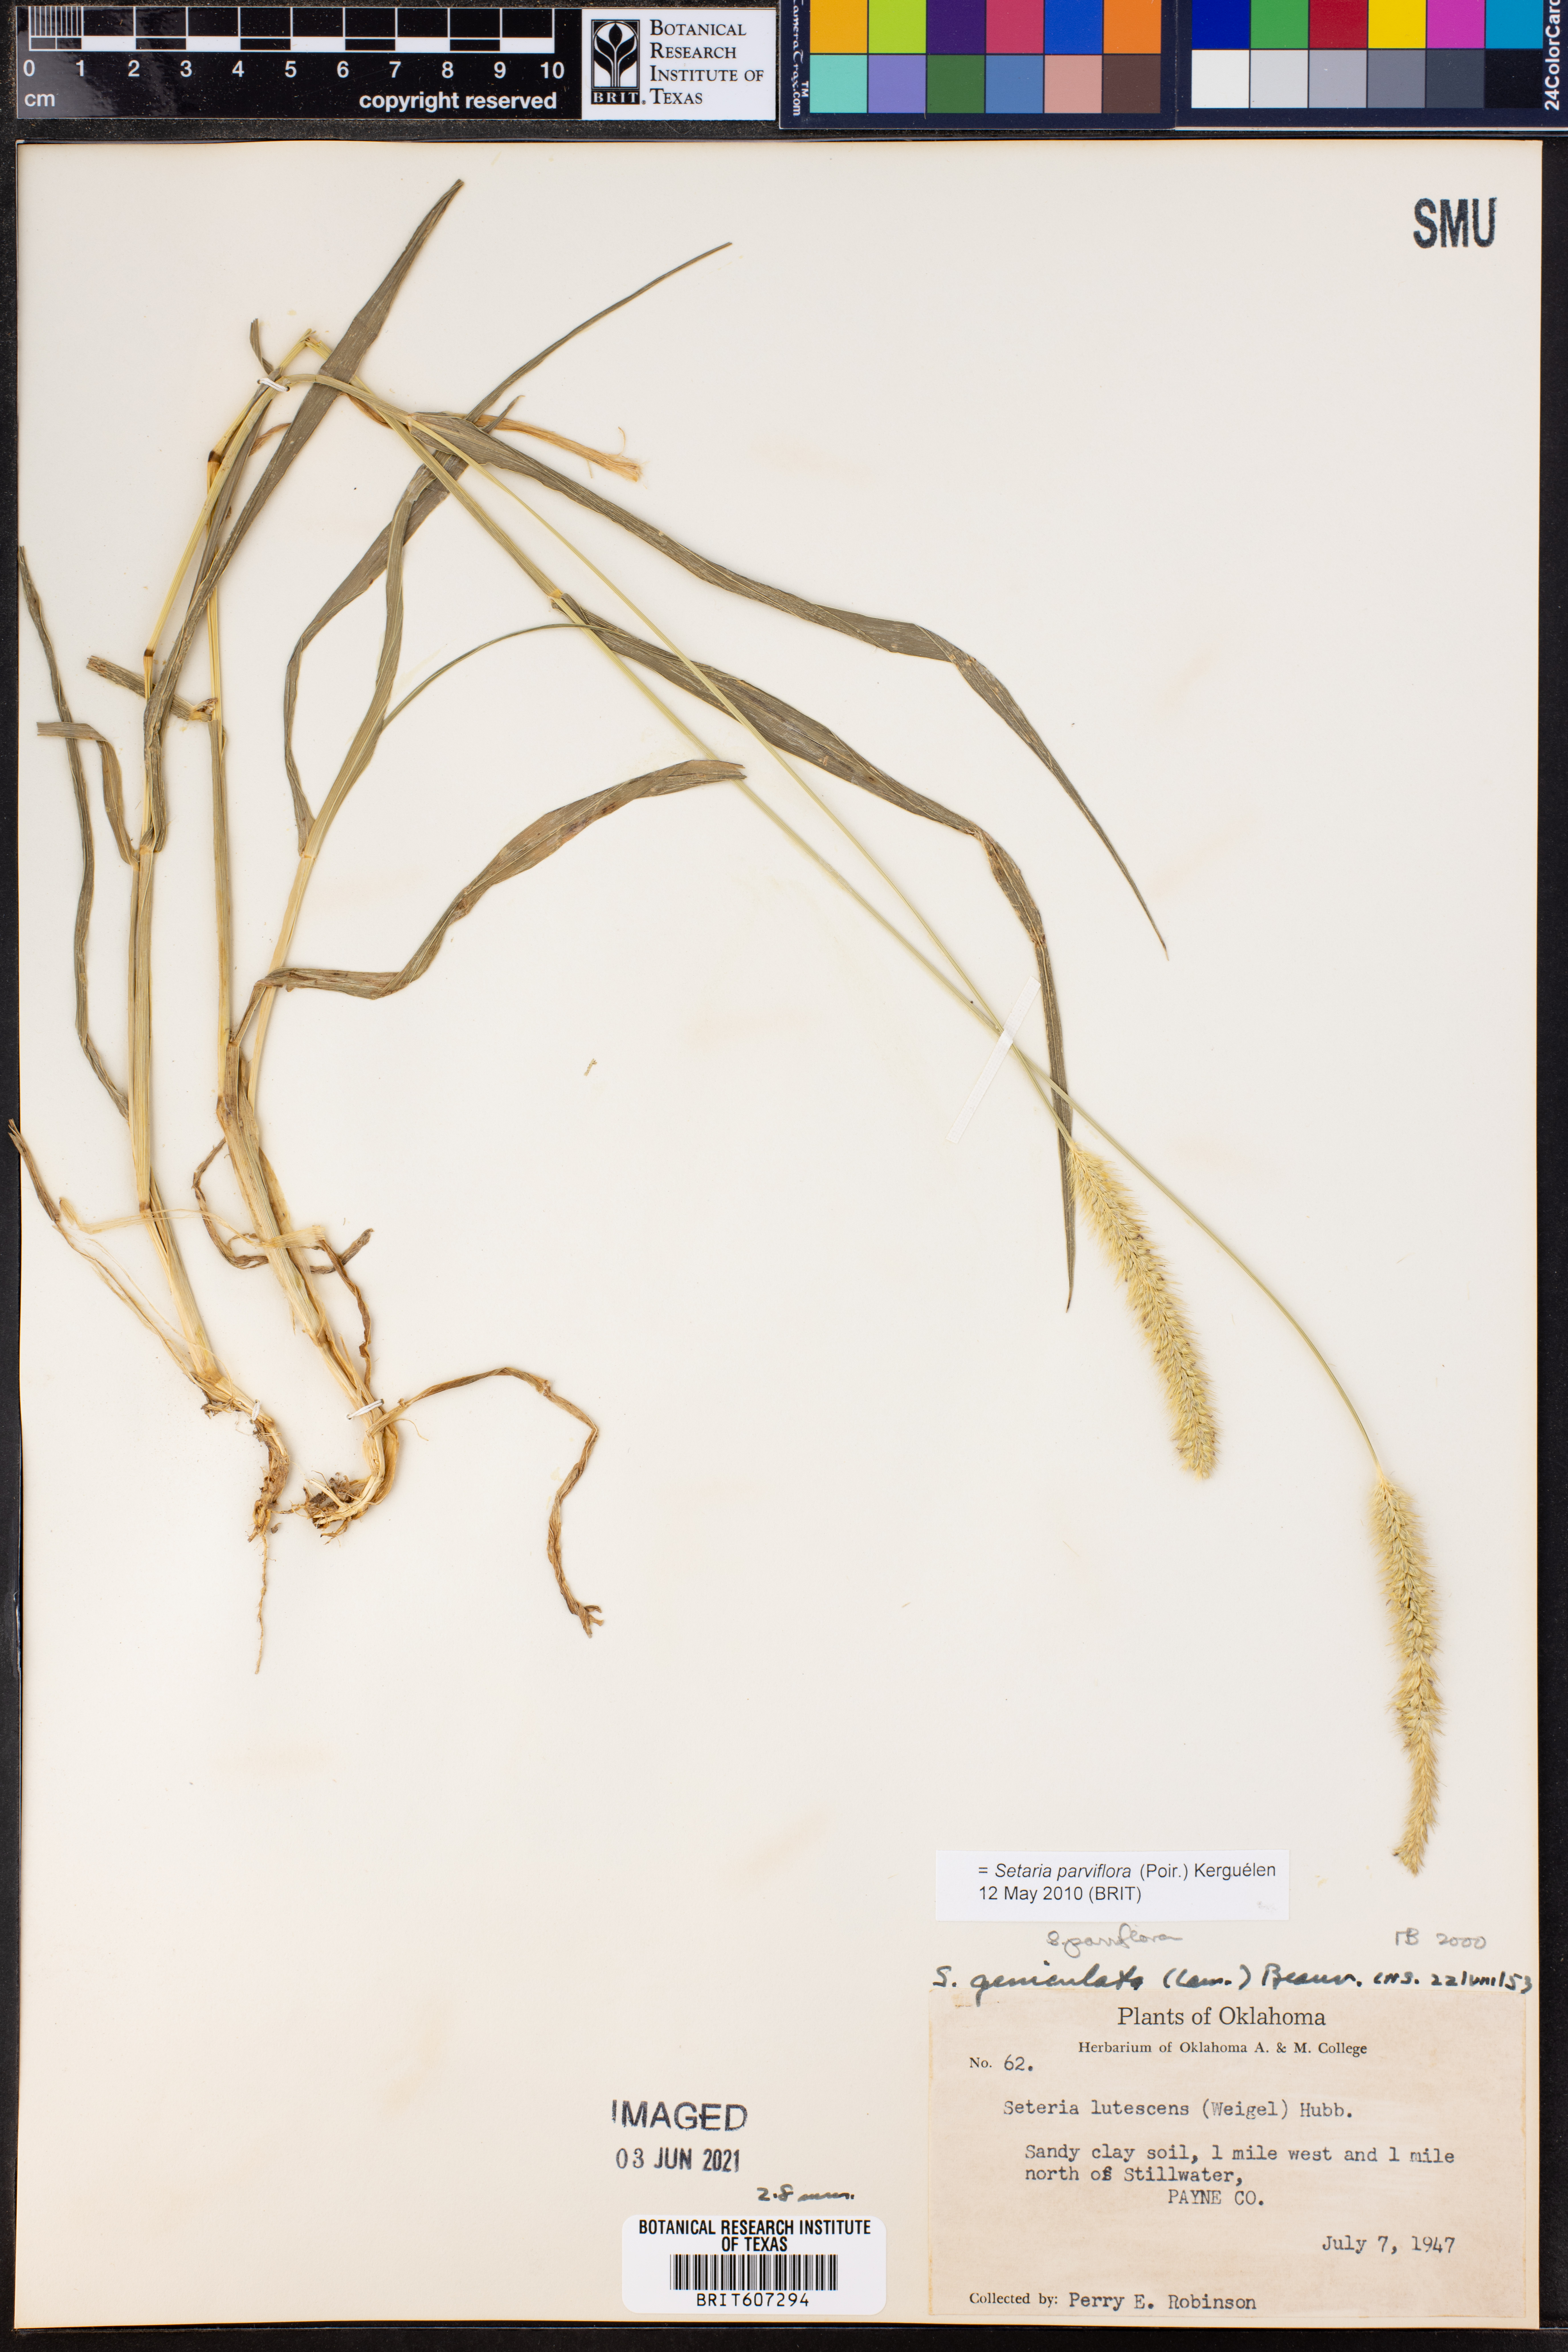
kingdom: Plantae
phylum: Tracheophyta
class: Liliopsida
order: Poales
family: Poaceae
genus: Setaria
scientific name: Setaria parviflora
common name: Knotroot bristle-grass
